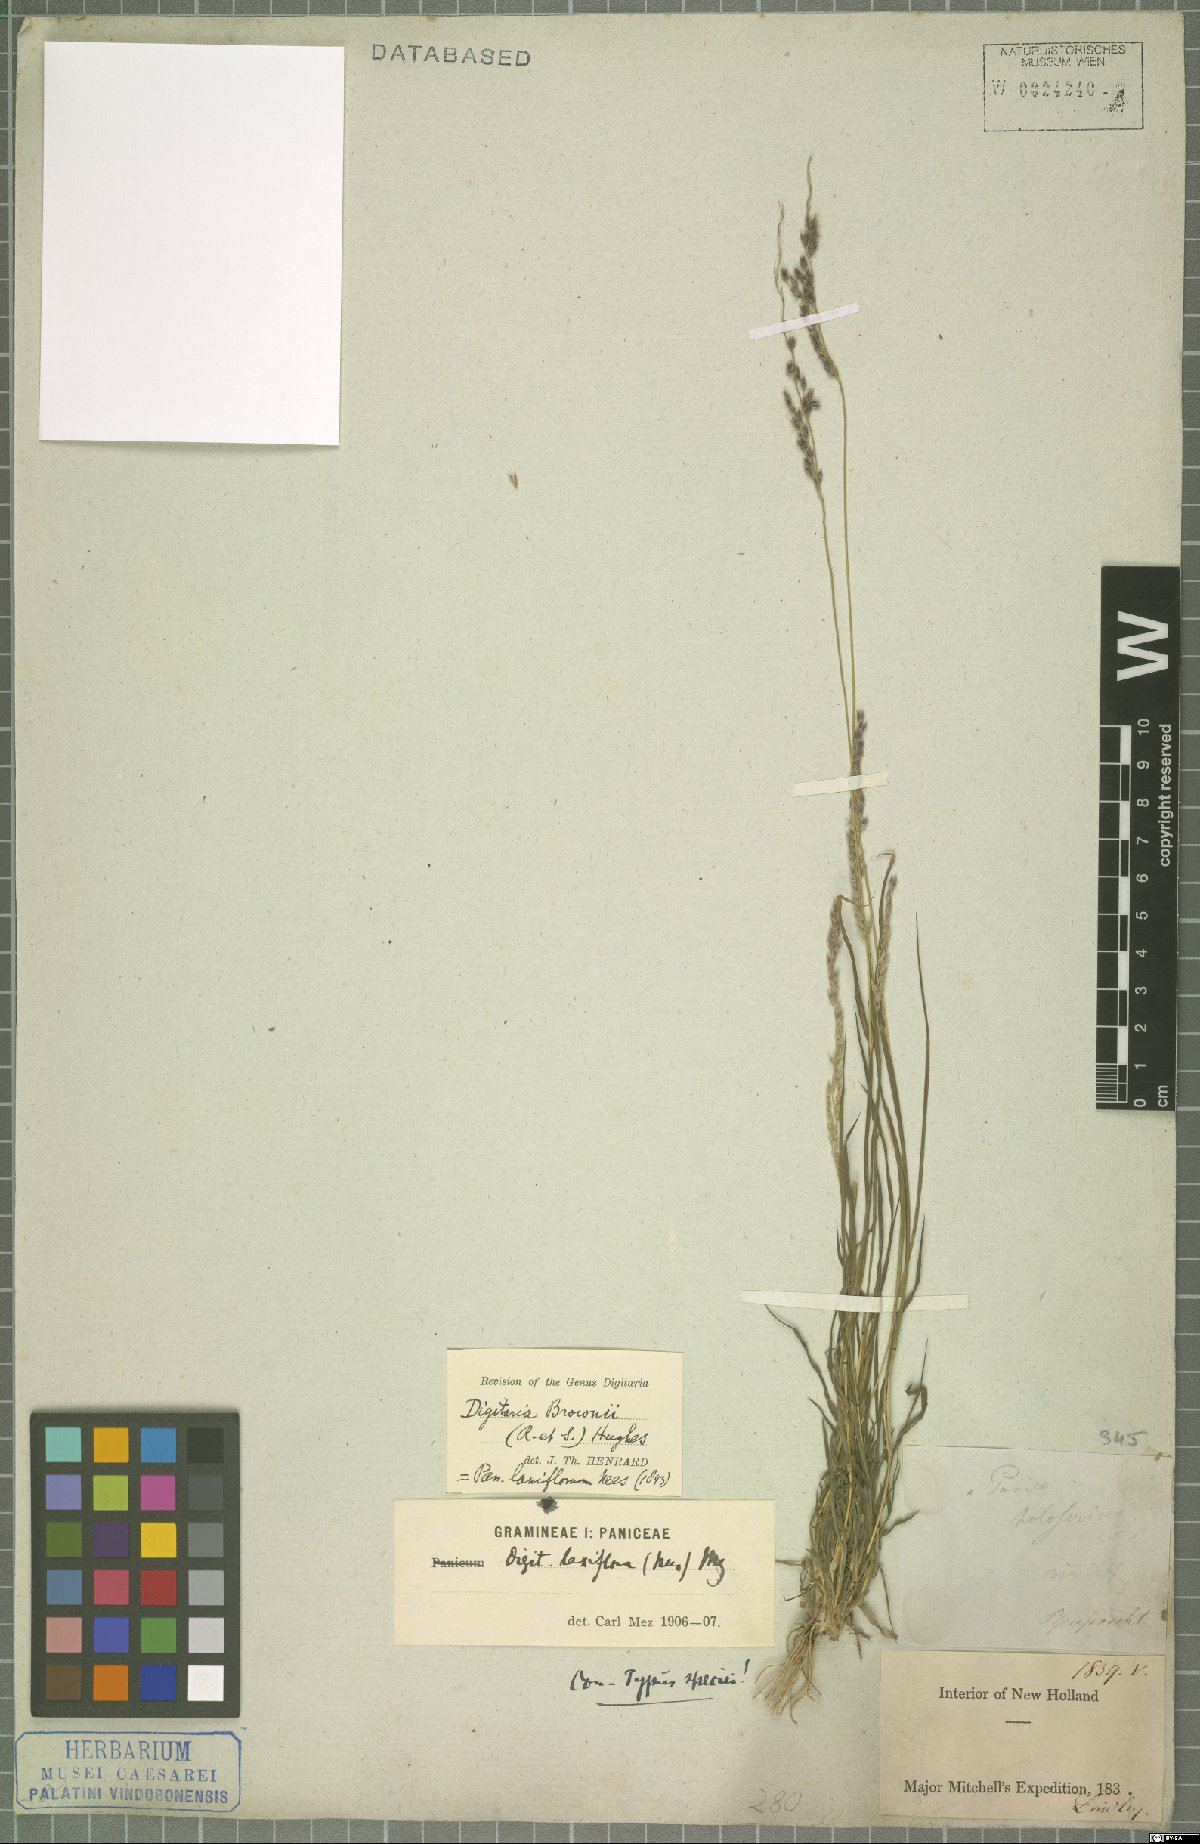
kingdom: Plantae
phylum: Tracheophyta
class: Liliopsida
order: Poales
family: Poaceae
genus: Digitaria
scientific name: Digitaria brownii
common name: Cotton grass
